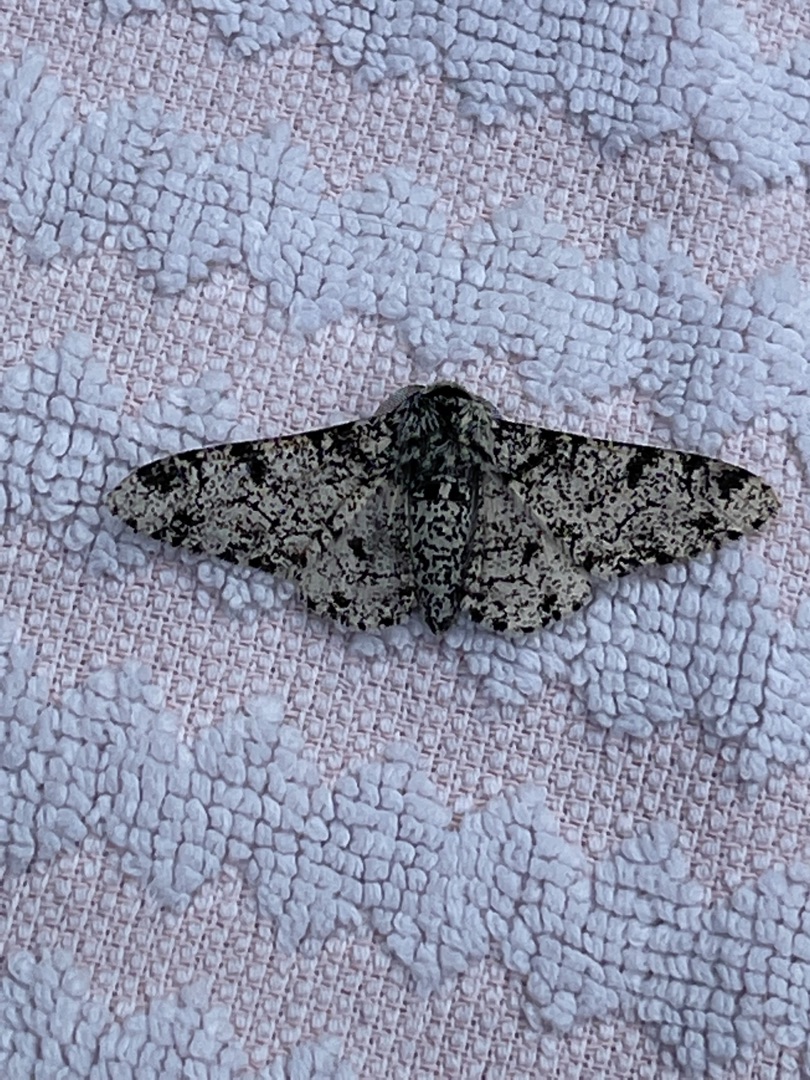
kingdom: Animalia
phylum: Arthropoda
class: Insecta
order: Lepidoptera
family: Geometridae
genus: Biston
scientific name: Biston betularia
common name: Birkemåler
